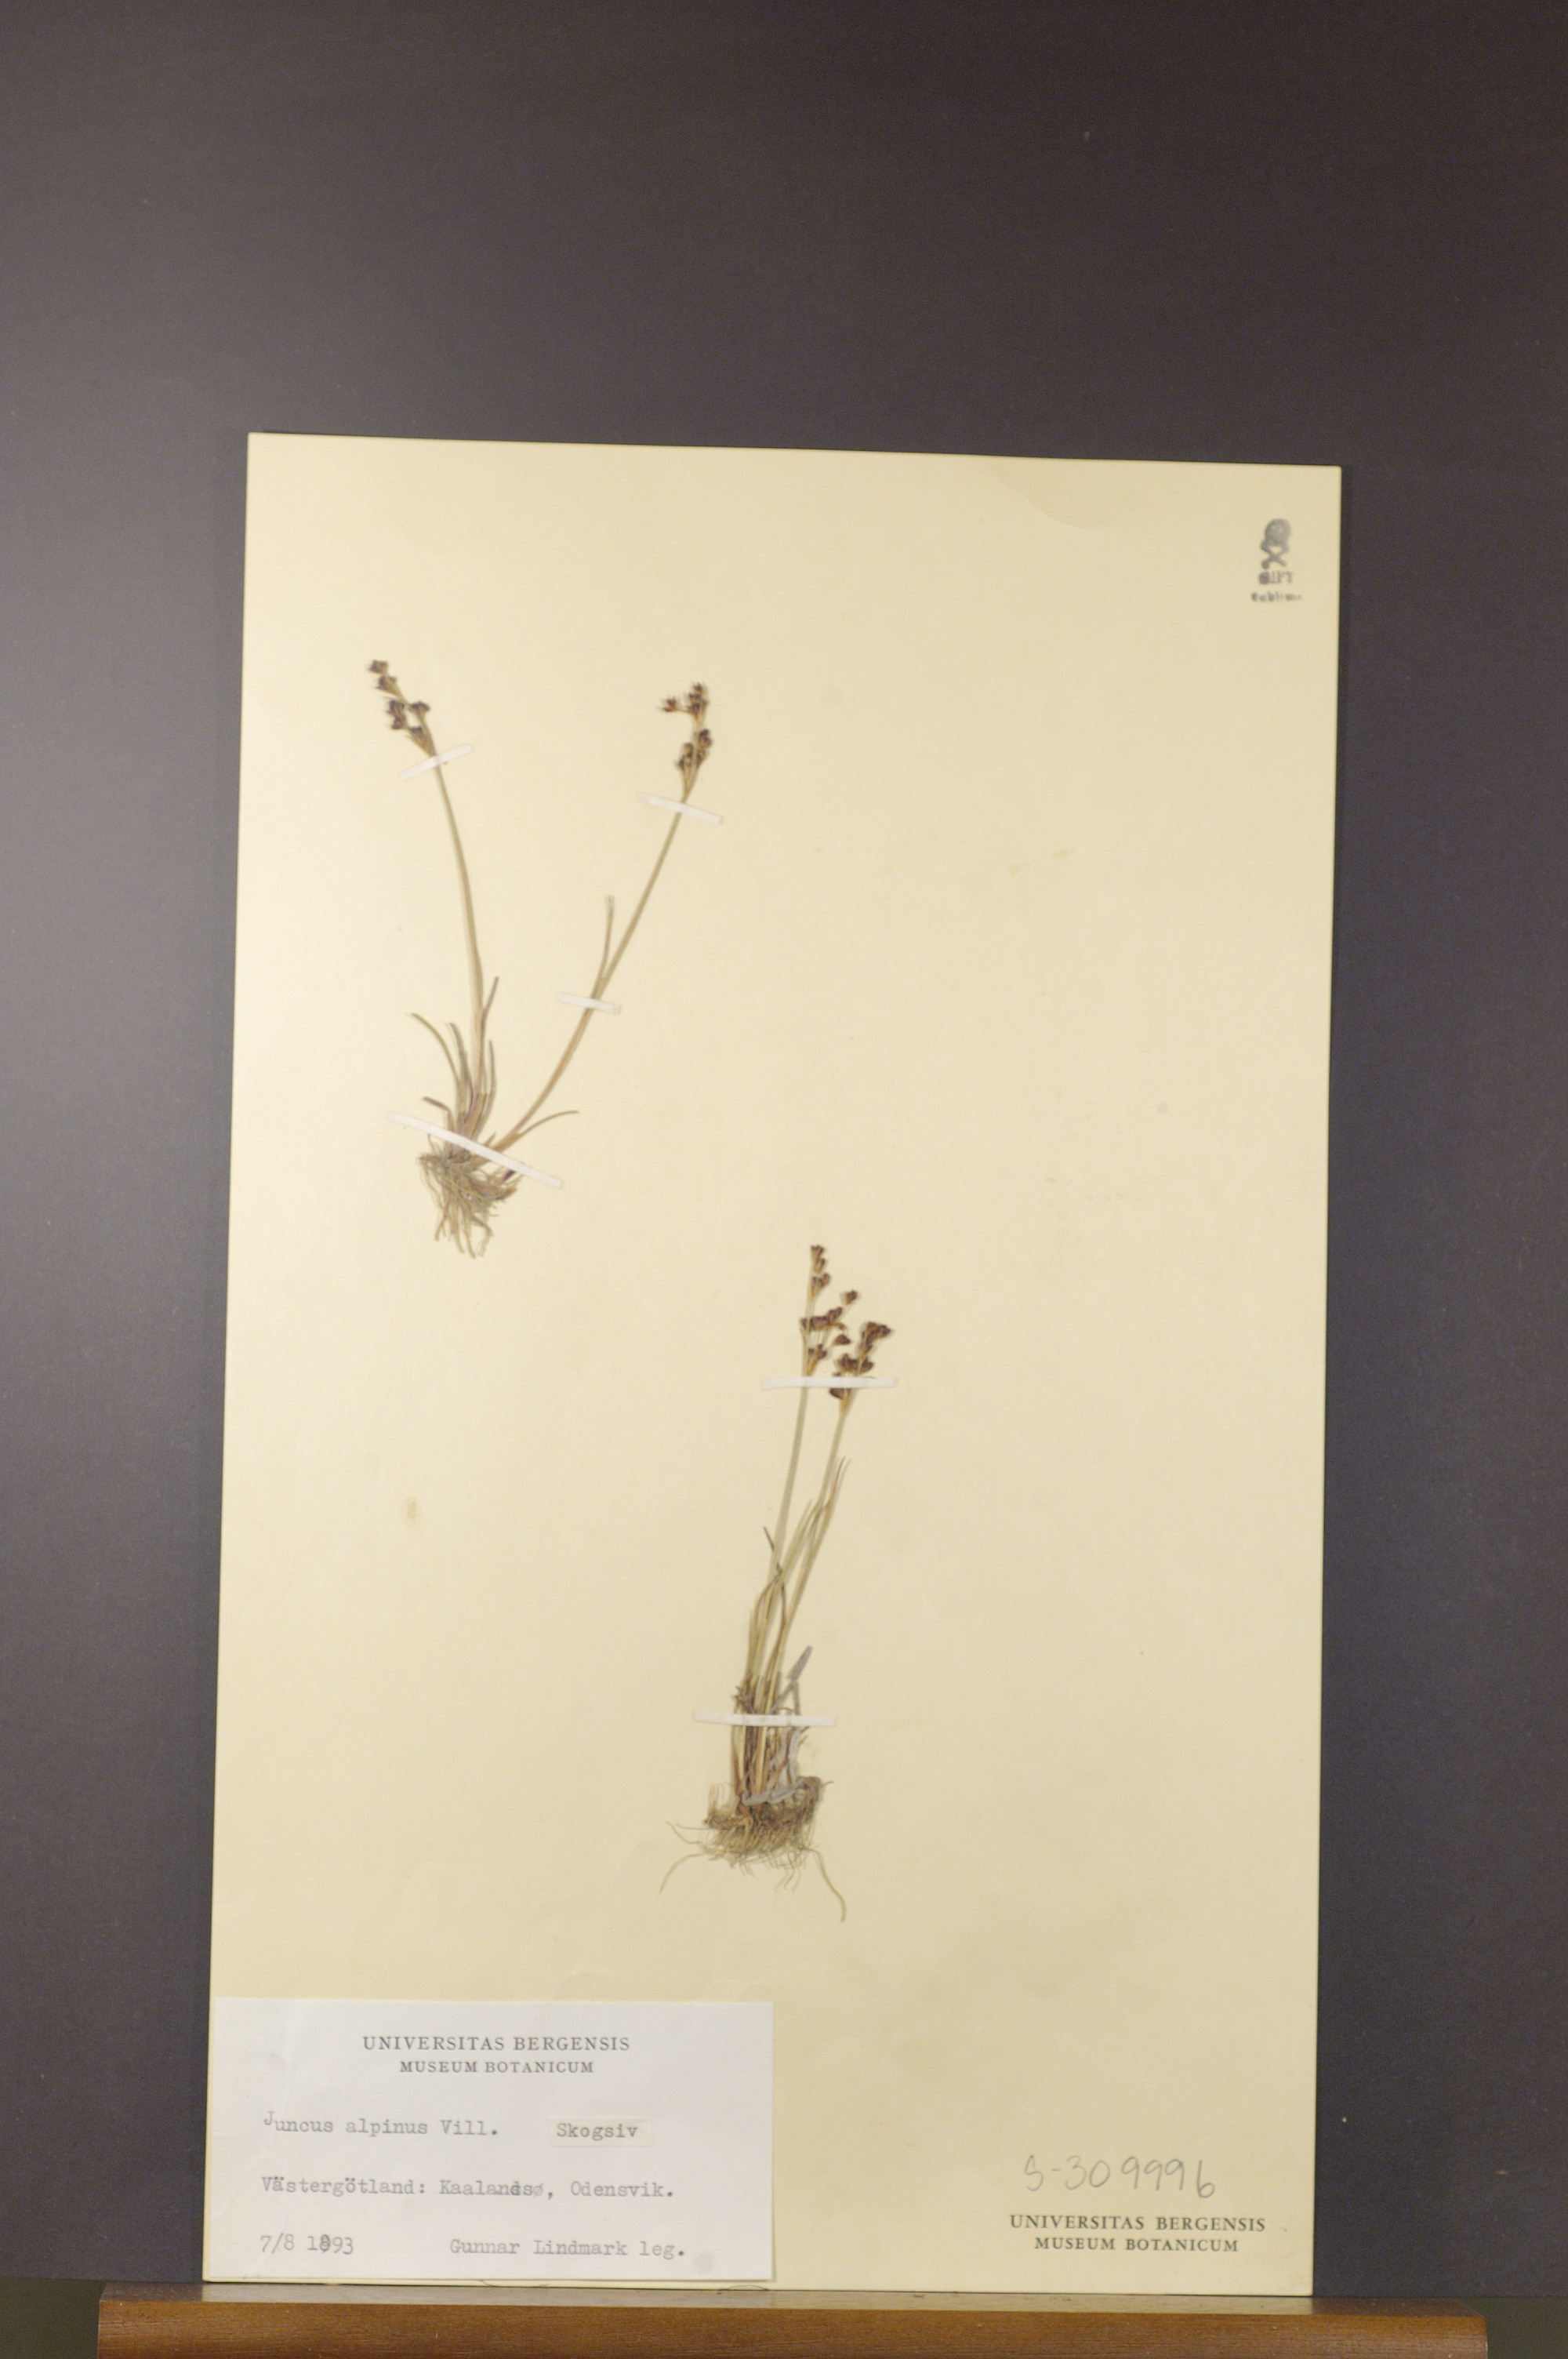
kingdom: Plantae
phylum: Tracheophyta
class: Liliopsida
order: Poales
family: Juncaceae
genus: Juncus
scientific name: Juncus alpinoarticulatus
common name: Alpine rush
